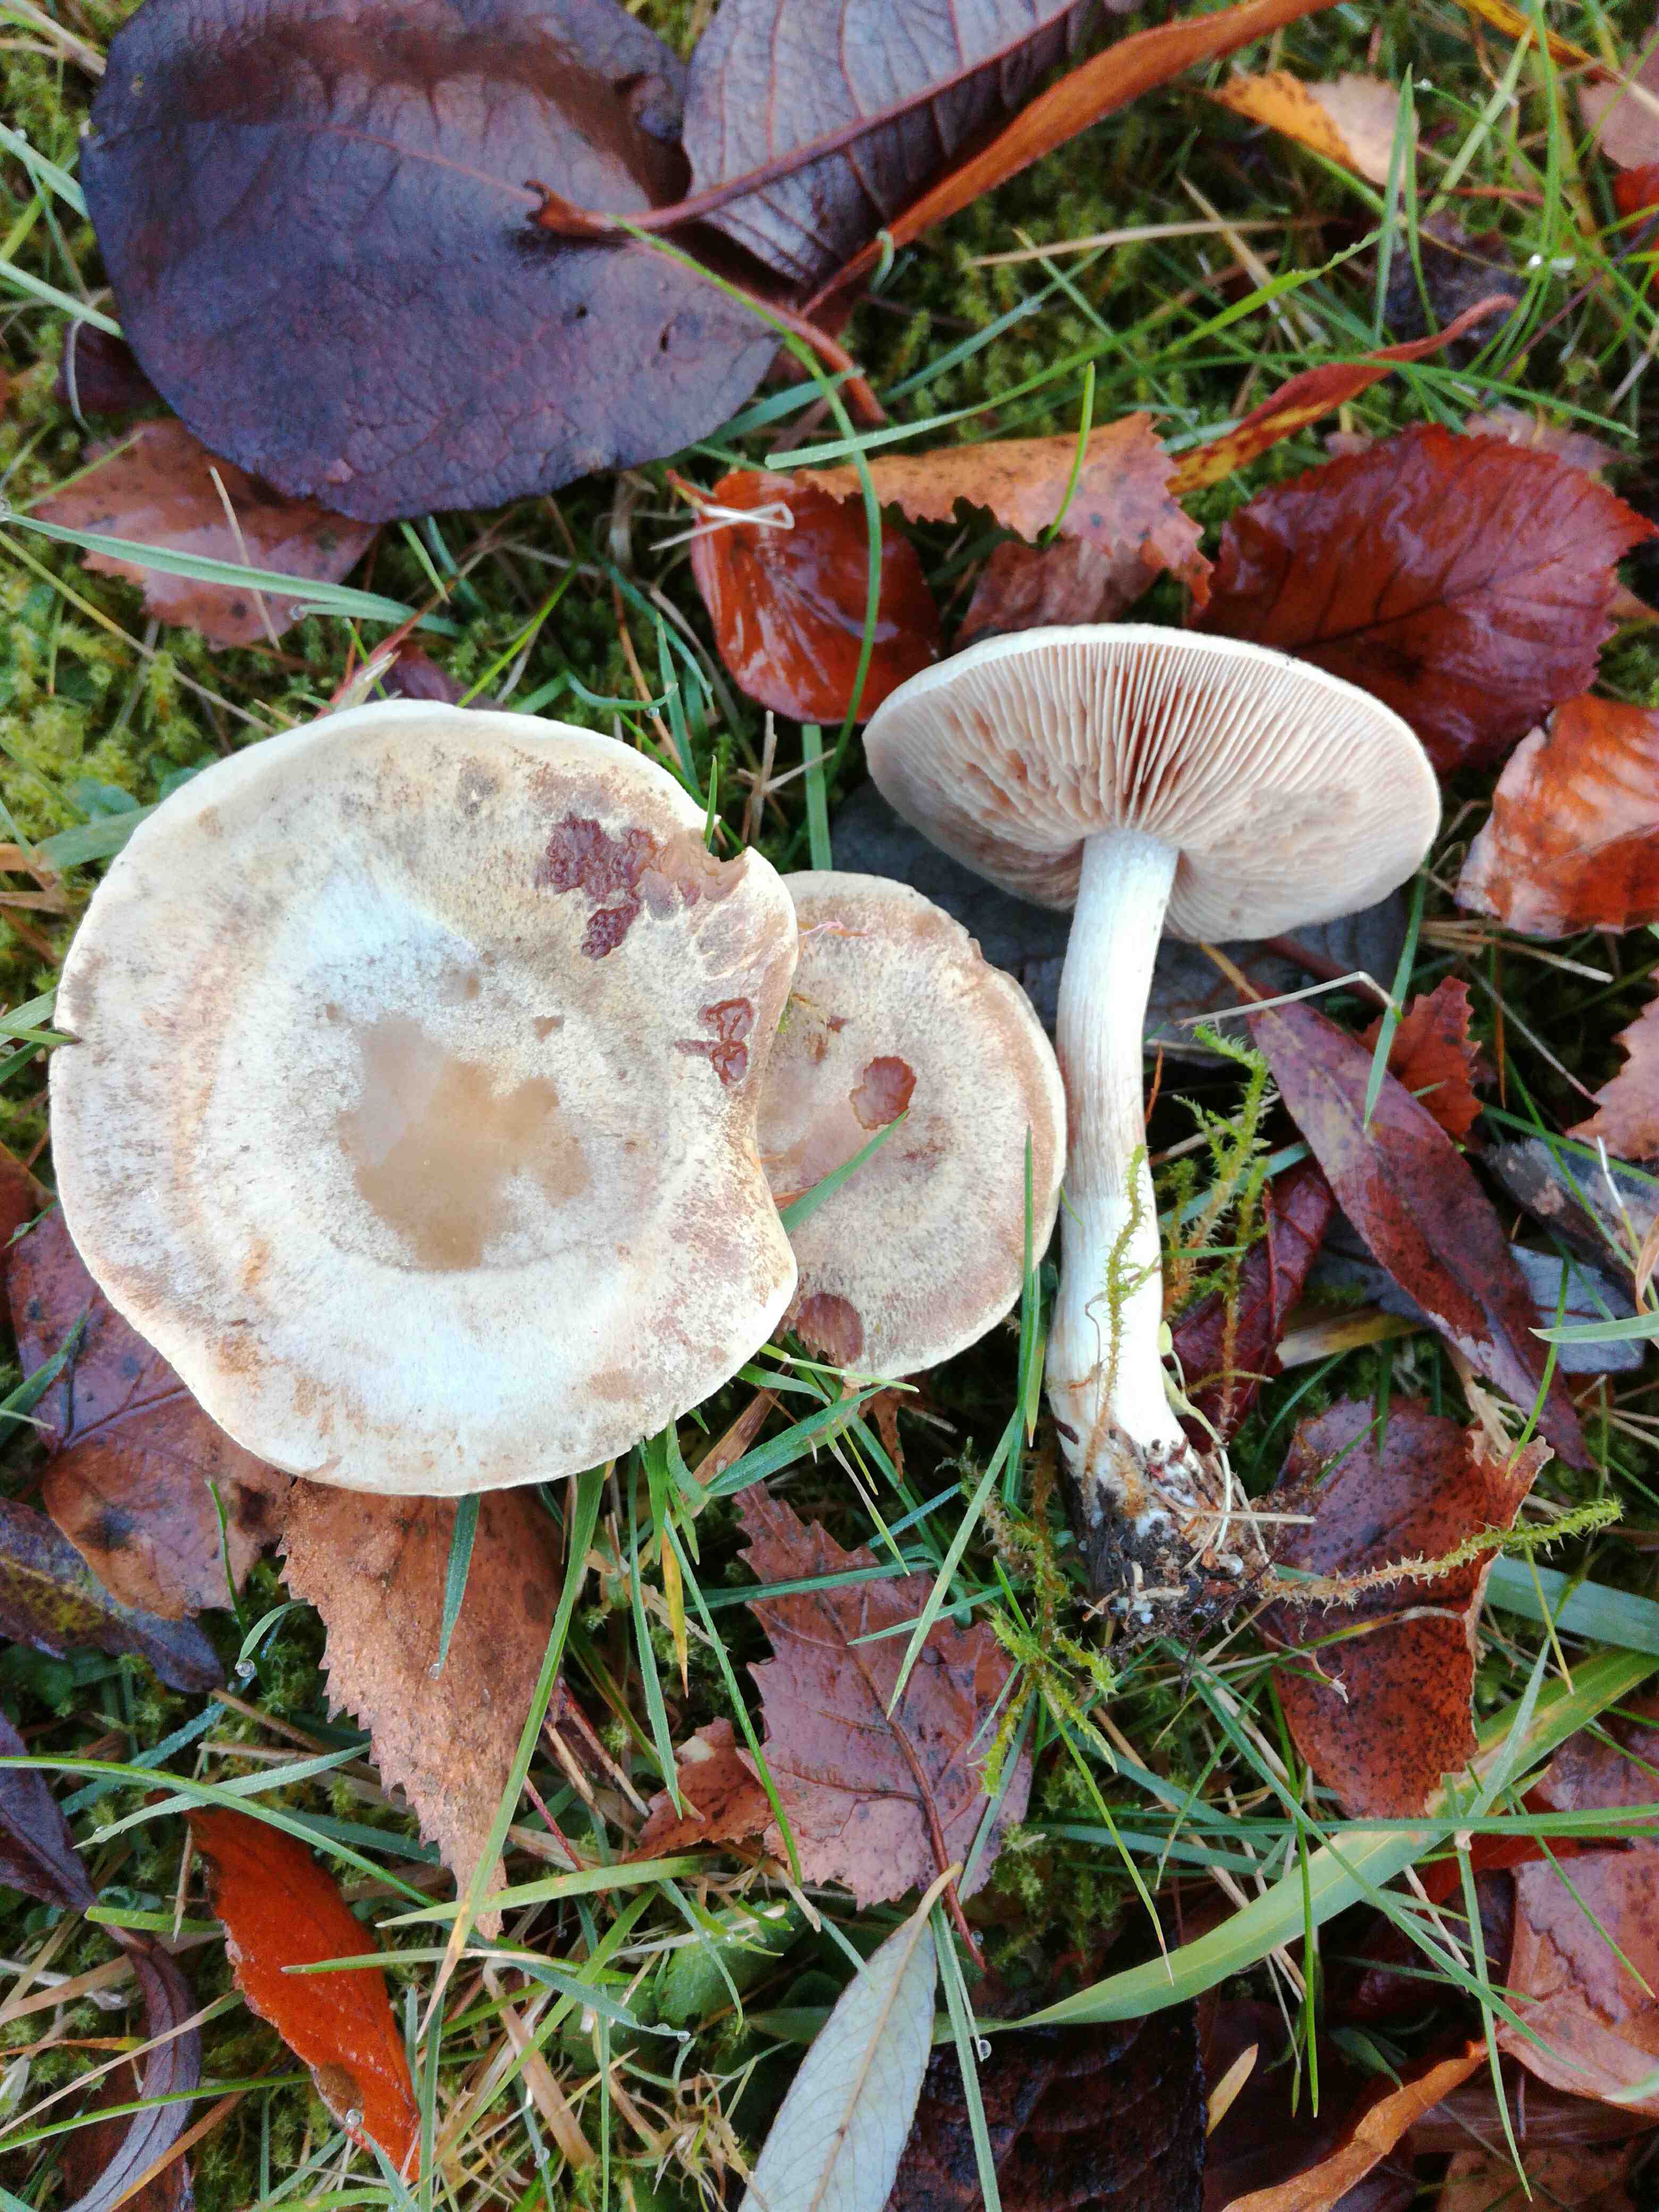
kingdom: Fungi
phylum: Basidiomycota
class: Agaricomycetes
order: Agaricales
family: Hymenogastraceae
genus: Hebeloma
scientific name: Hebeloma mesophaeum
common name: lerbrun tåreblad
